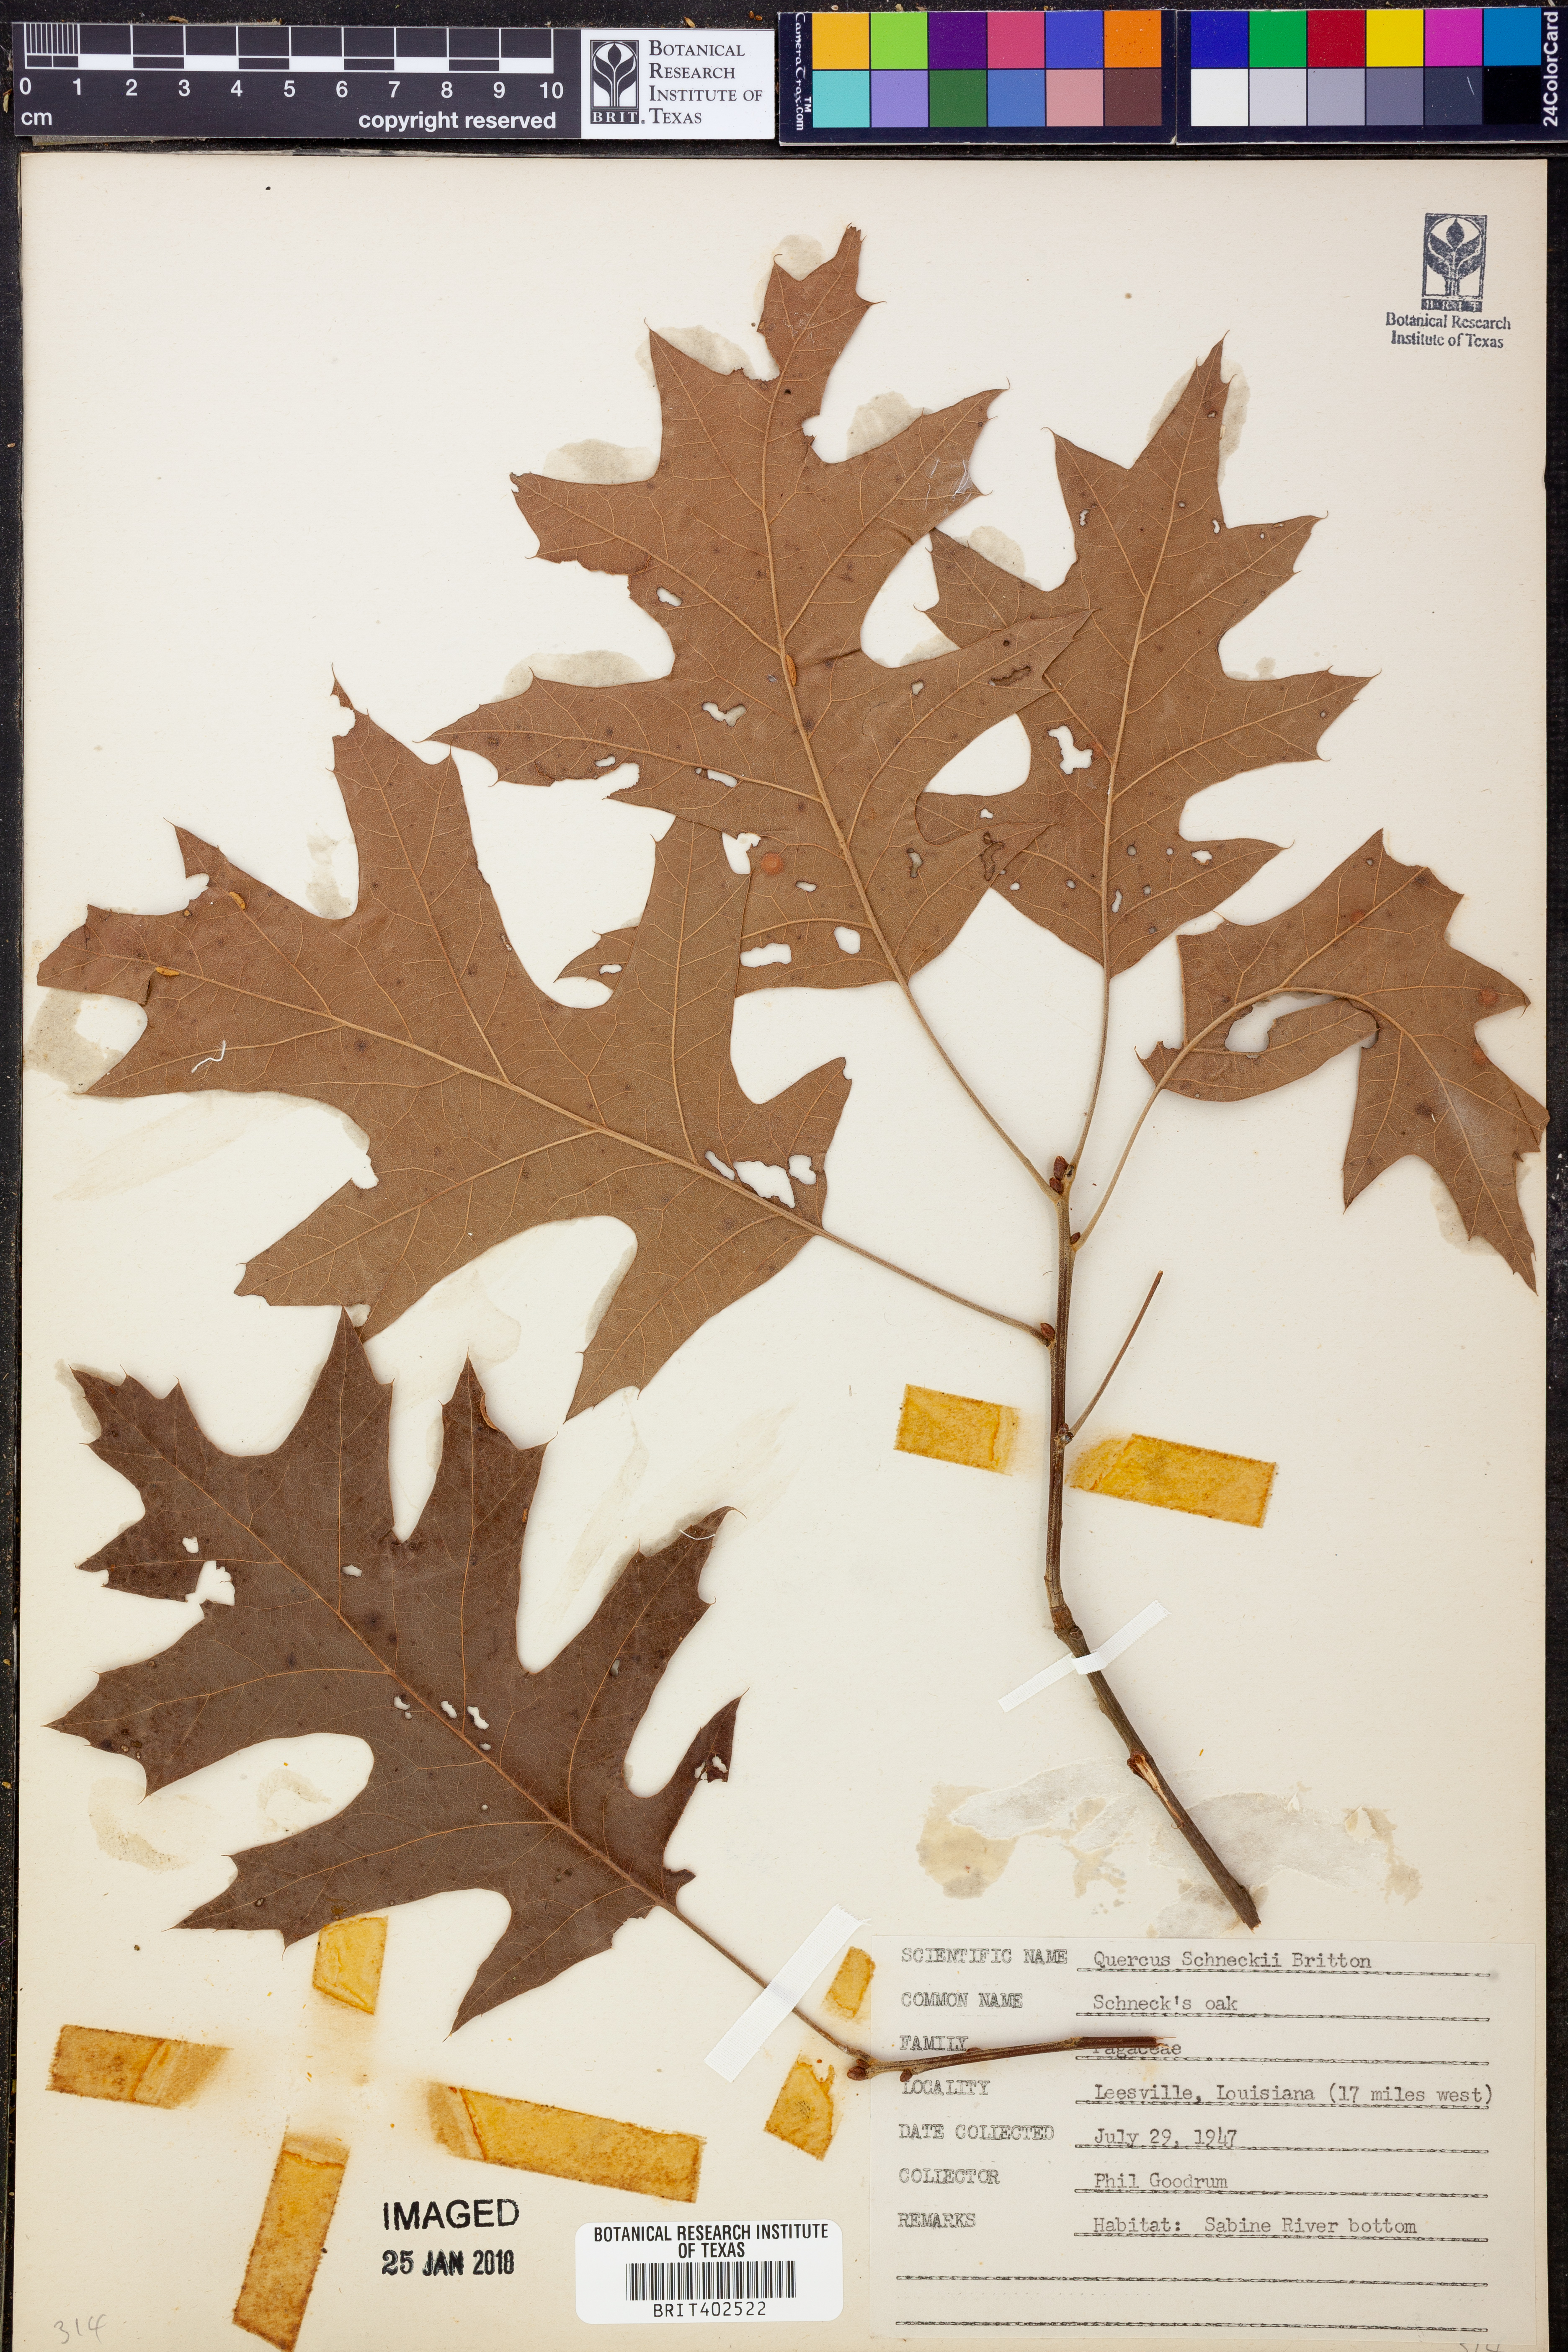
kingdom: Plantae
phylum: Tracheophyta
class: Magnoliopsida
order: Fagales
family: Fagaceae
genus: Quercus
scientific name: Quercus shumardii
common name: Shumard oak
